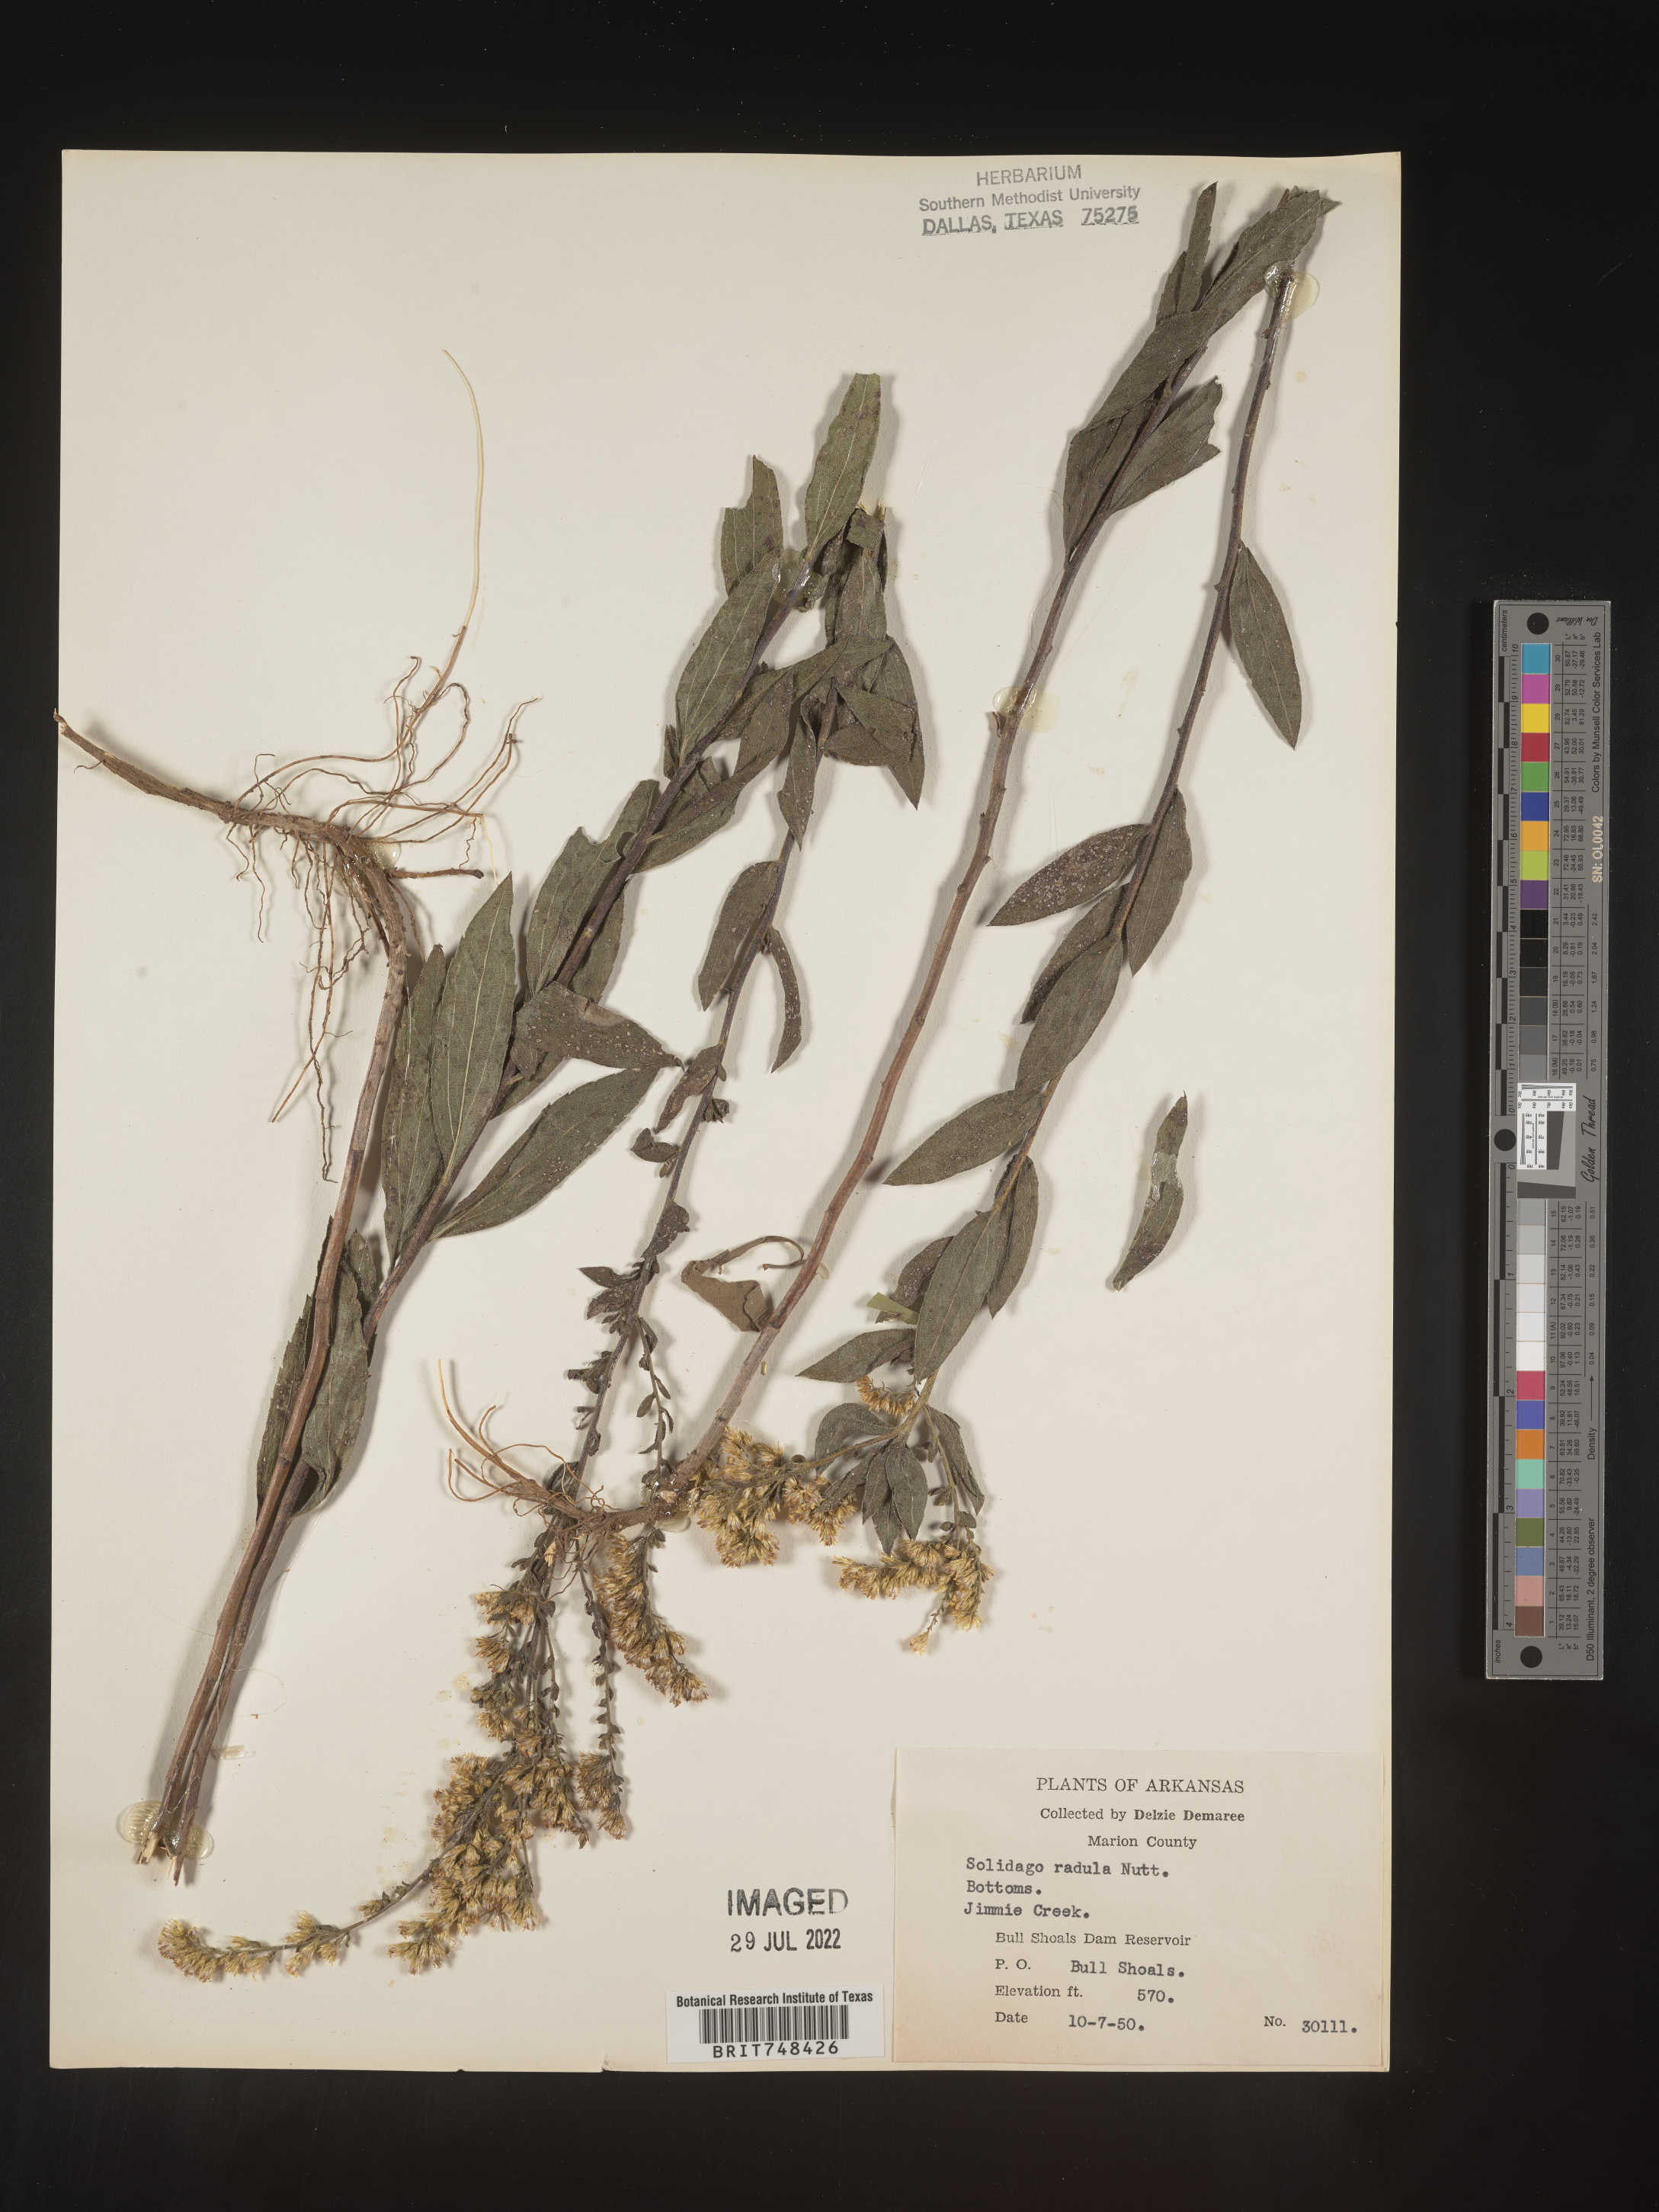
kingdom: Plantae
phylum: Tracheophyta
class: Magnoliopsida
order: Asterales
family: Asteraceae
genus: Solidago
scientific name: Solidago radula
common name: Western rough goldenrod
